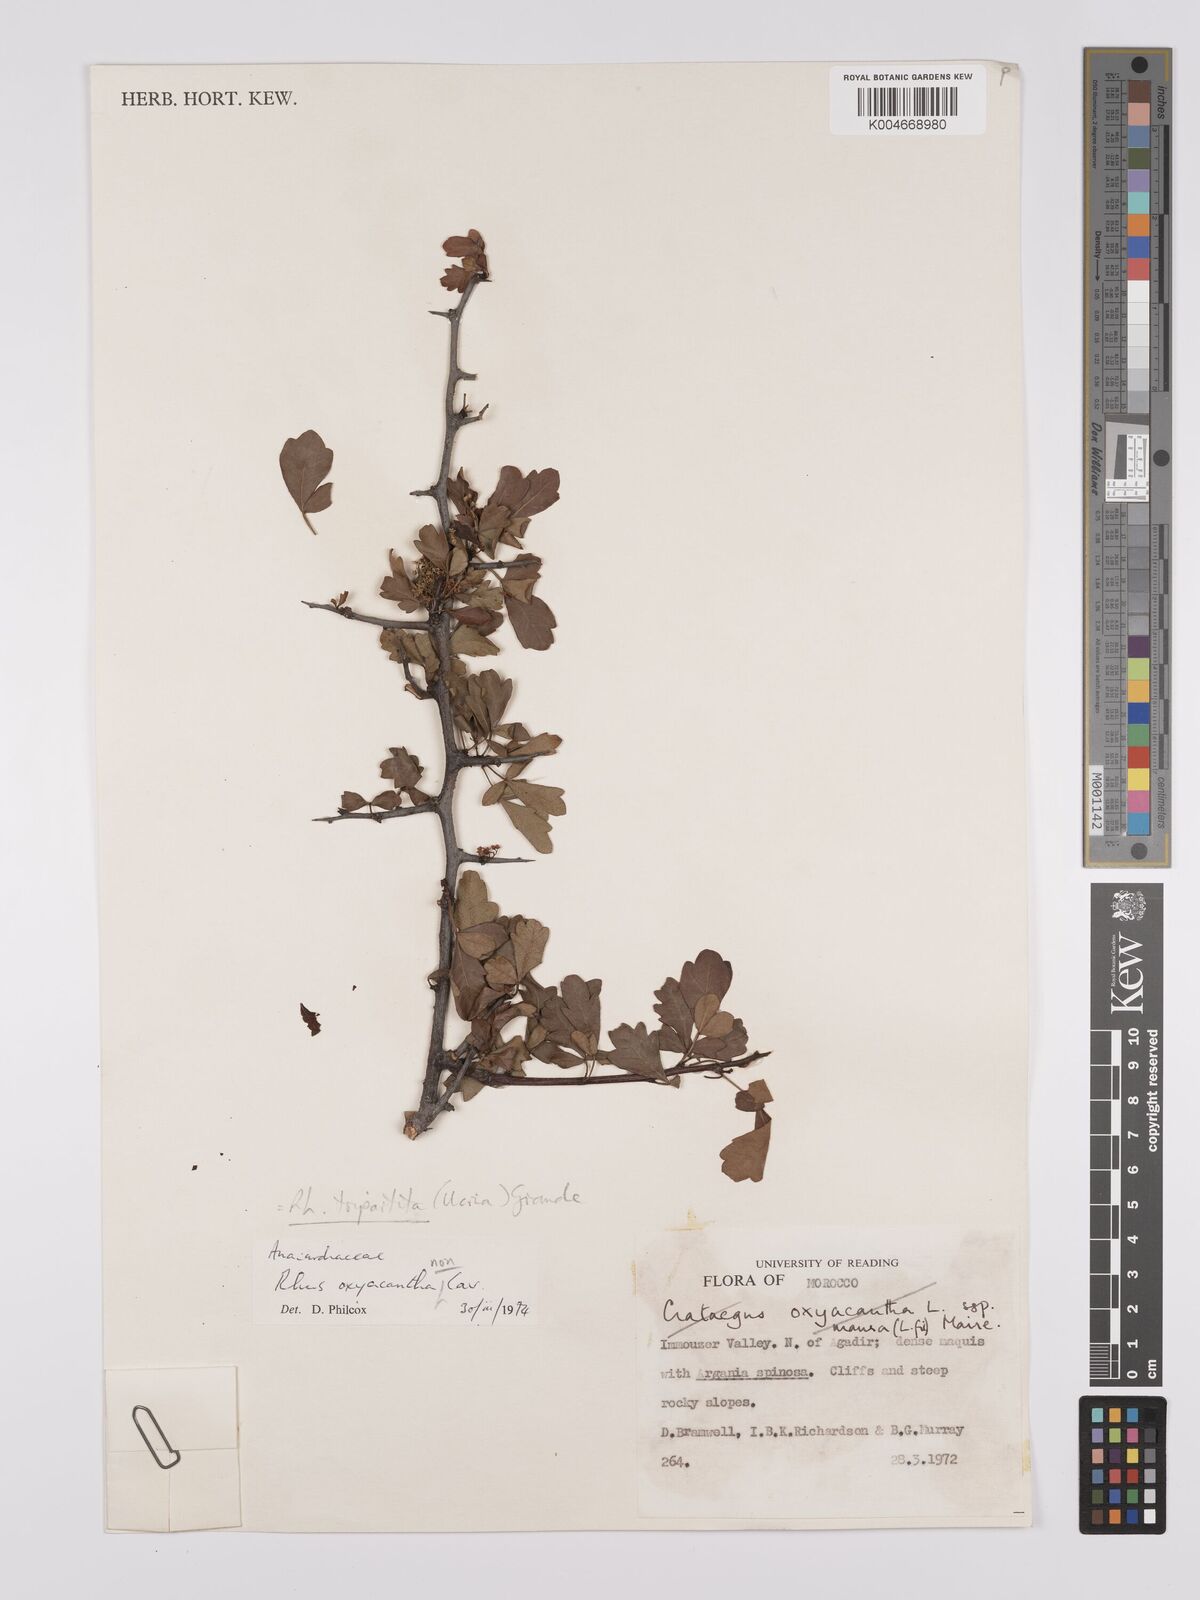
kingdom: Plantae
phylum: Tracheophyta
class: Magnoliopsida
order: Sapindales
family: Anacardiaceae
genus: Rhus
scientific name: Rhus
